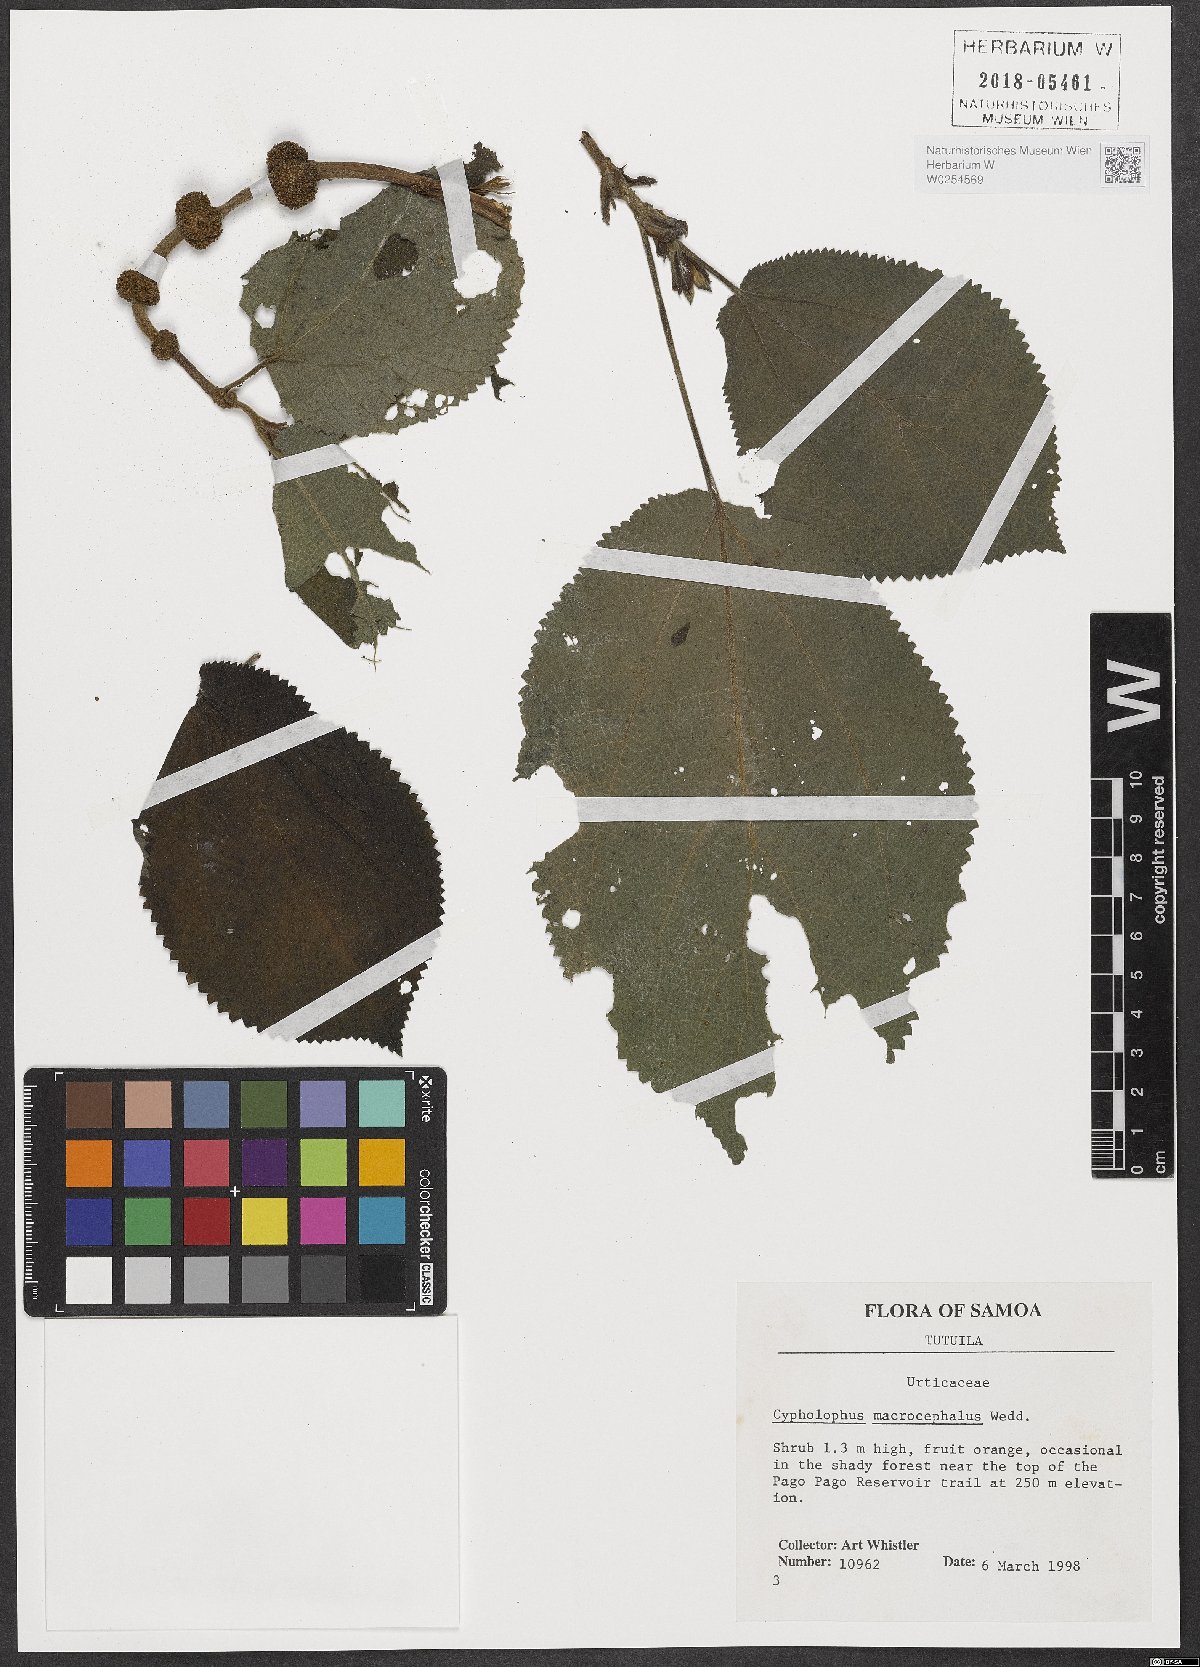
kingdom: Plantae
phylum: Tracheophyta
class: Magnoliopsida
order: Rosales
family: Urticaceae
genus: Cypholophus
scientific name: Cypholophus macrocephalus
